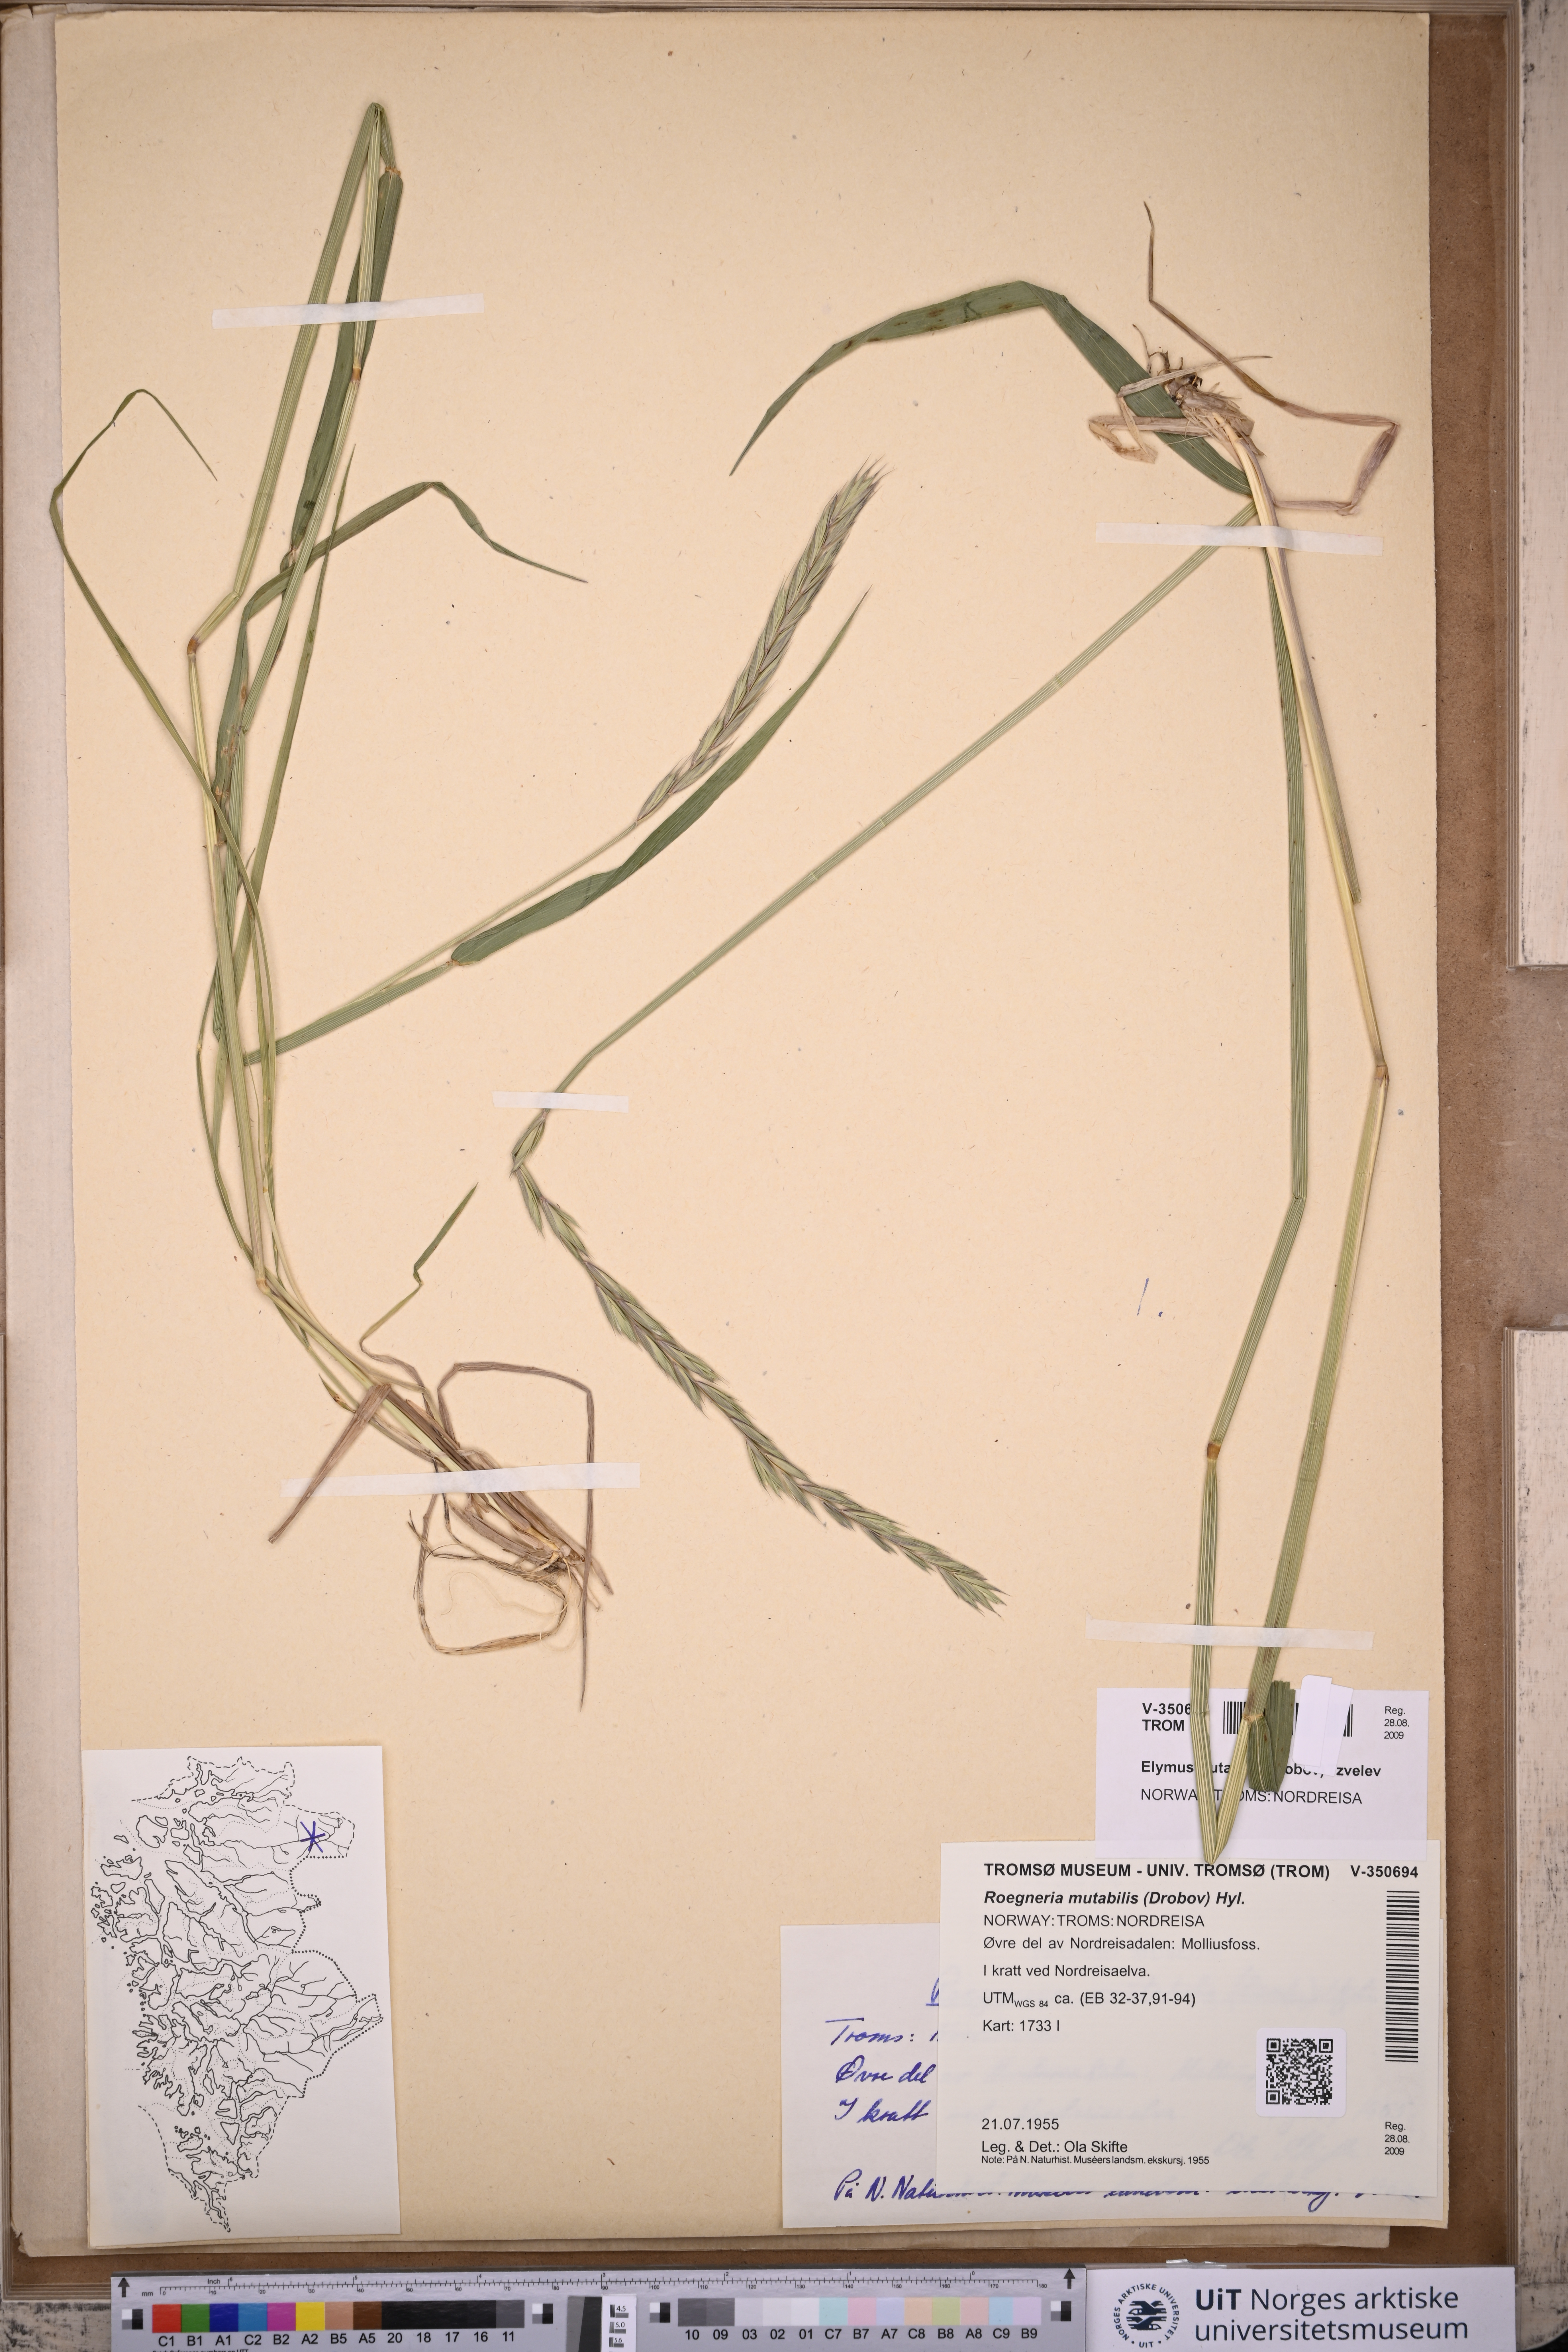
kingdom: Plantae
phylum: Tracheophyta
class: Liliopsida
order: Poales
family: Poaceae
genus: Elymus
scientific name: Elymus mutabilis
